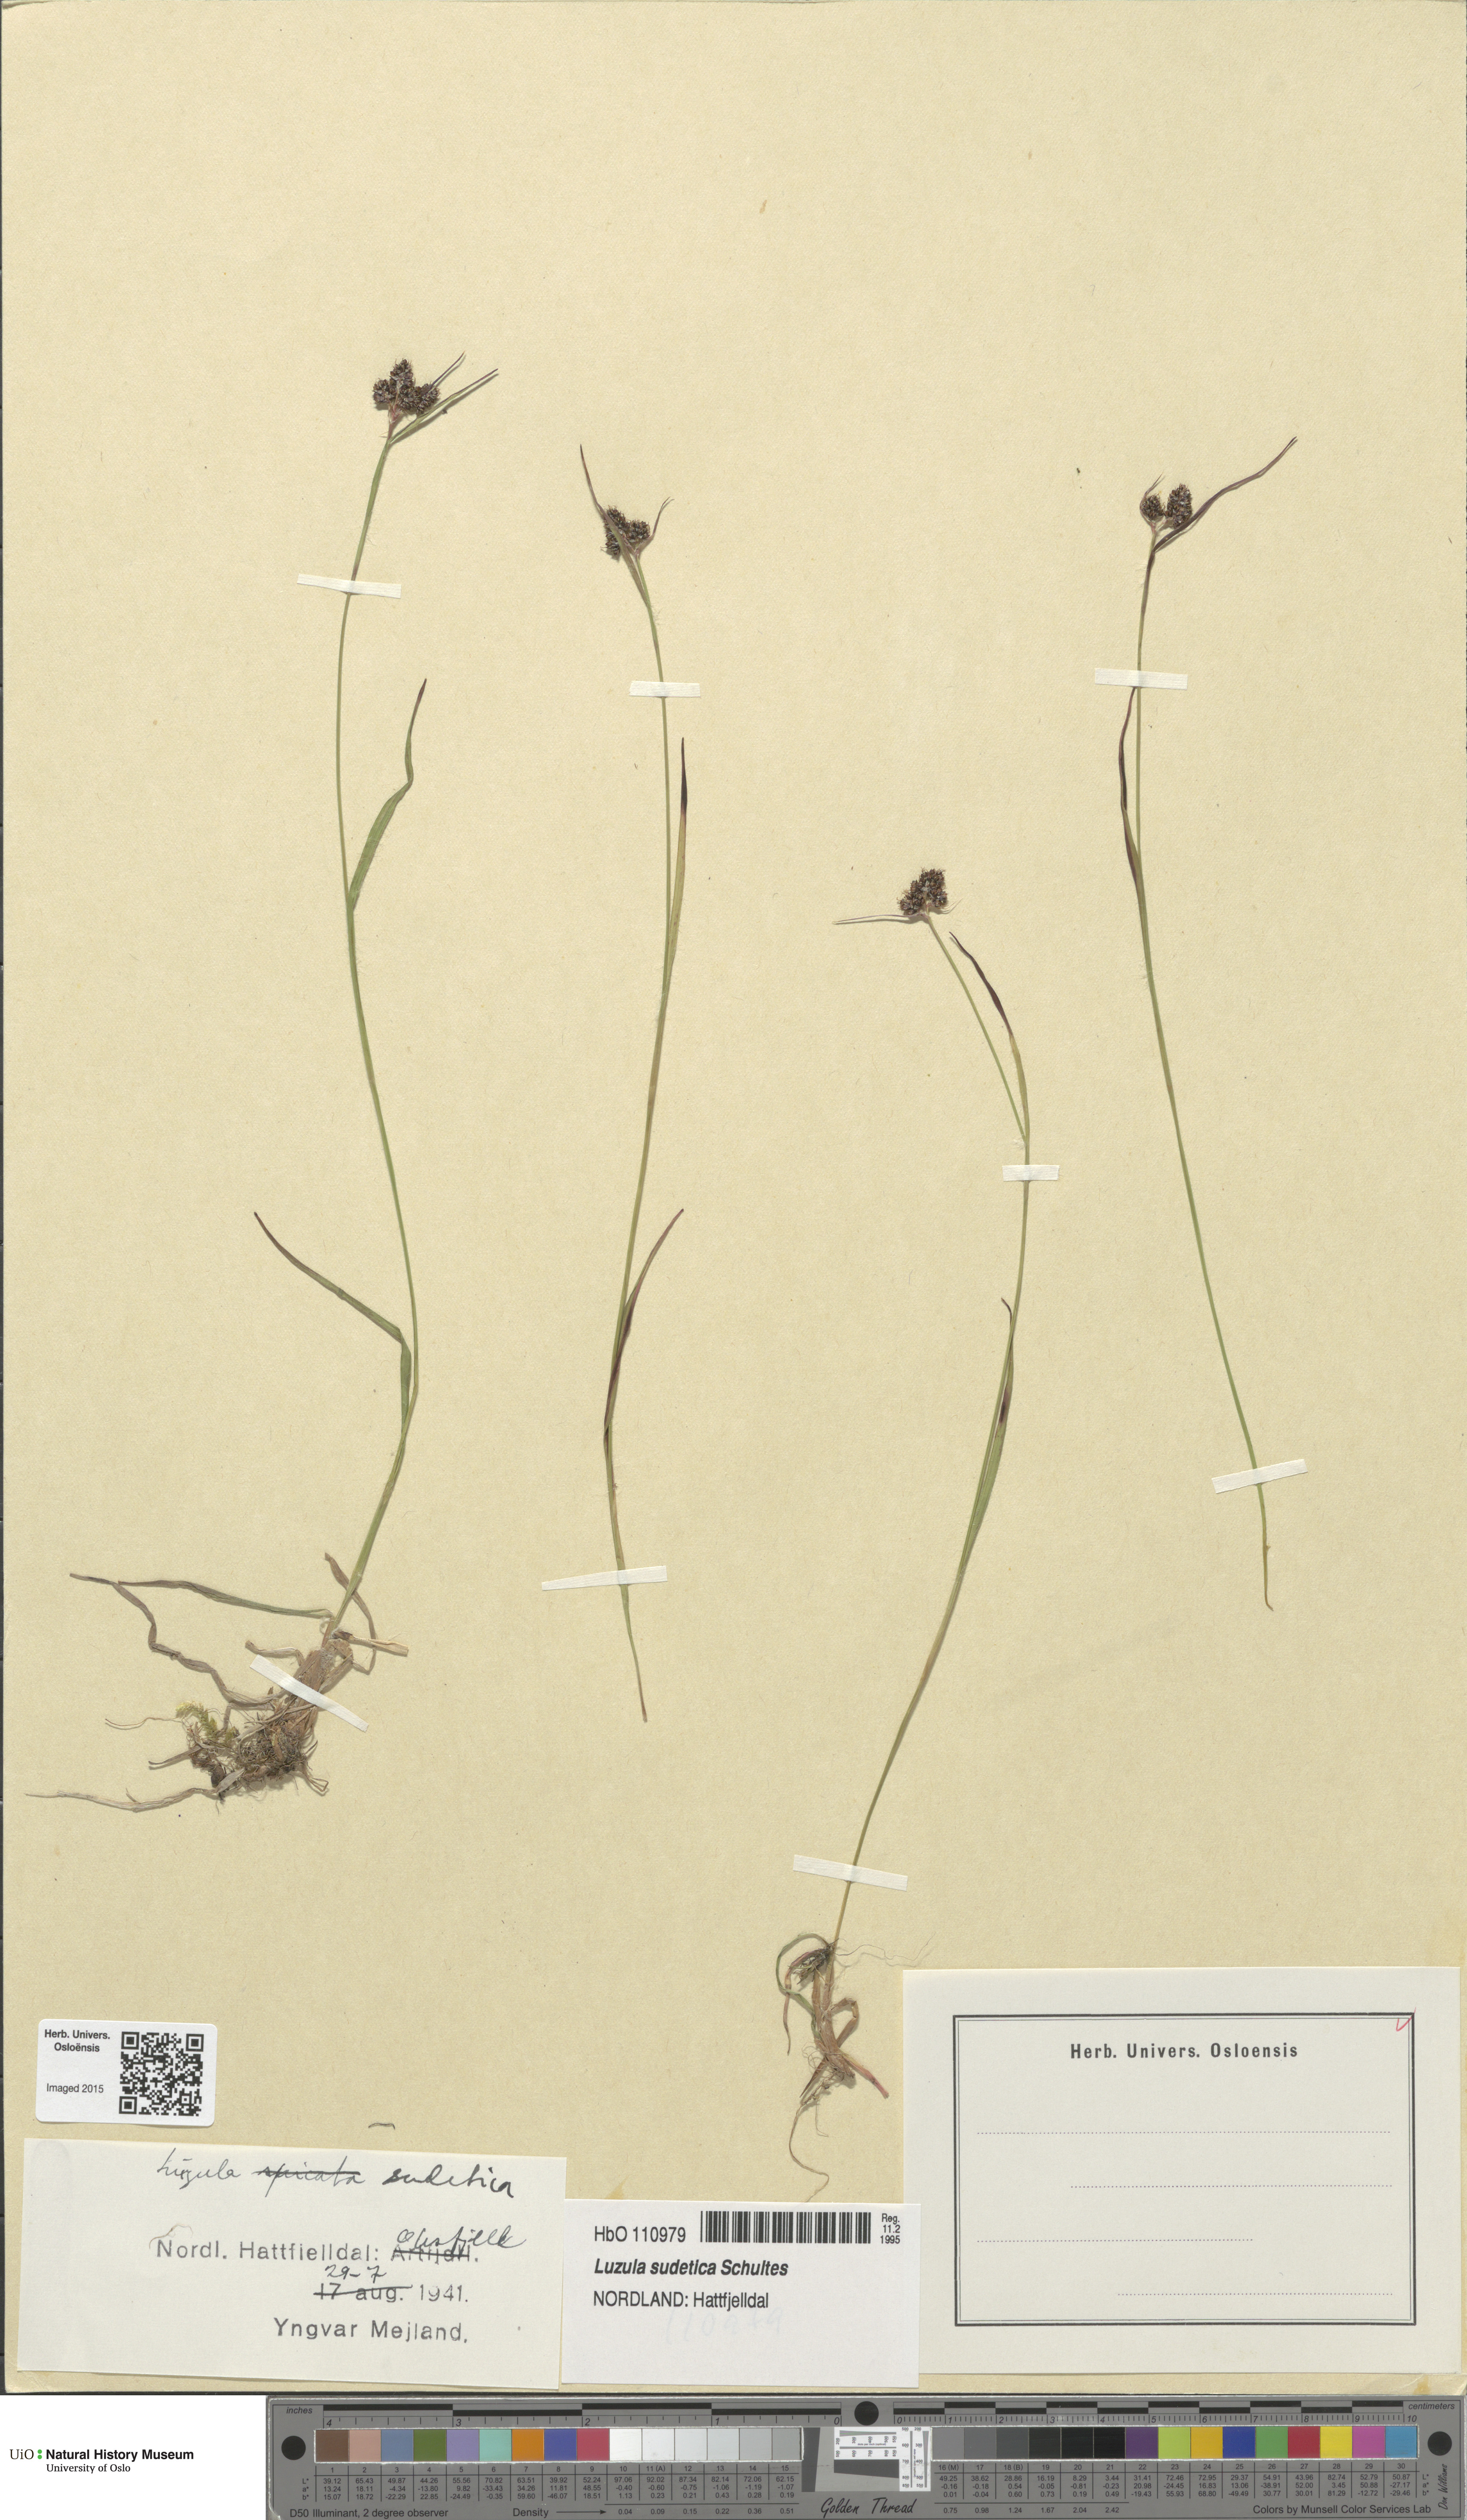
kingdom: Plantae
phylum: Tracheophyta
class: Liliopsida
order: Poales
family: Juncaceae
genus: Luzula
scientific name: Luzula sudetica
